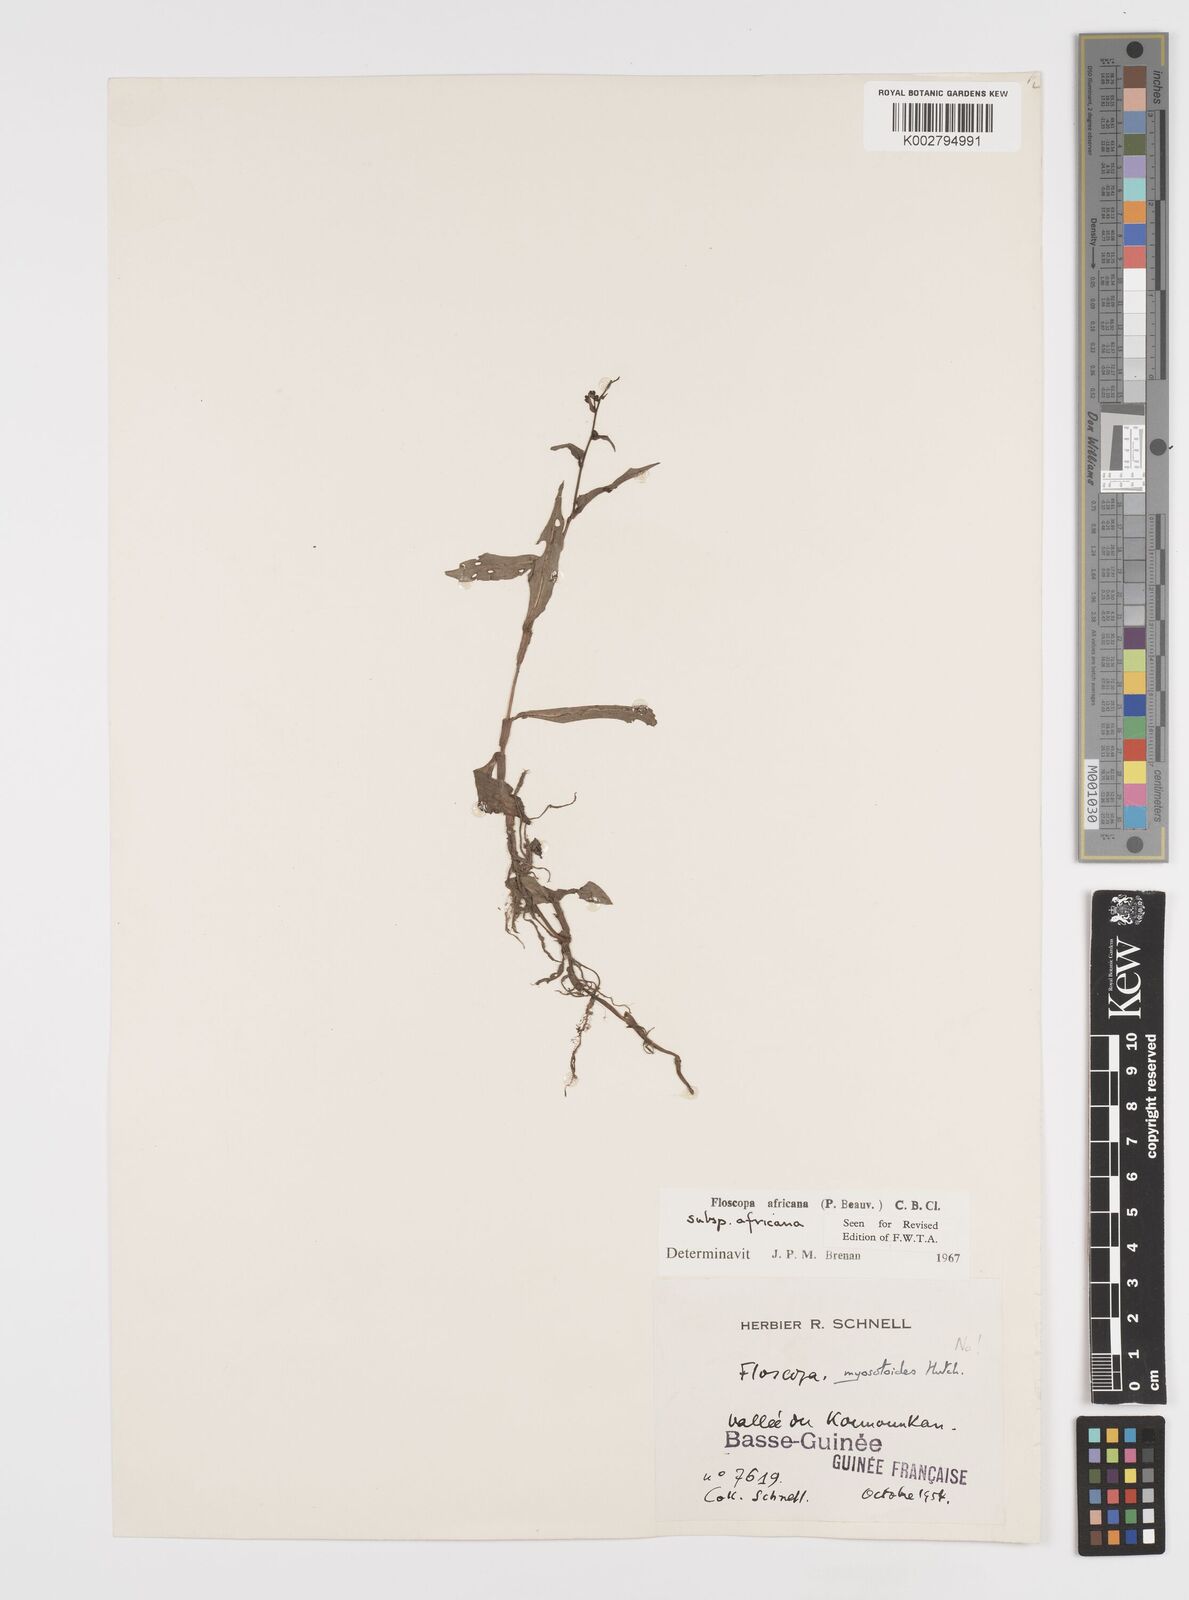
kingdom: Plantae
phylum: Tracheophyta
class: Liliopsida
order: Commelinales
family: Commelinaceae
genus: Floscopa
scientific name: Floscopa africana
